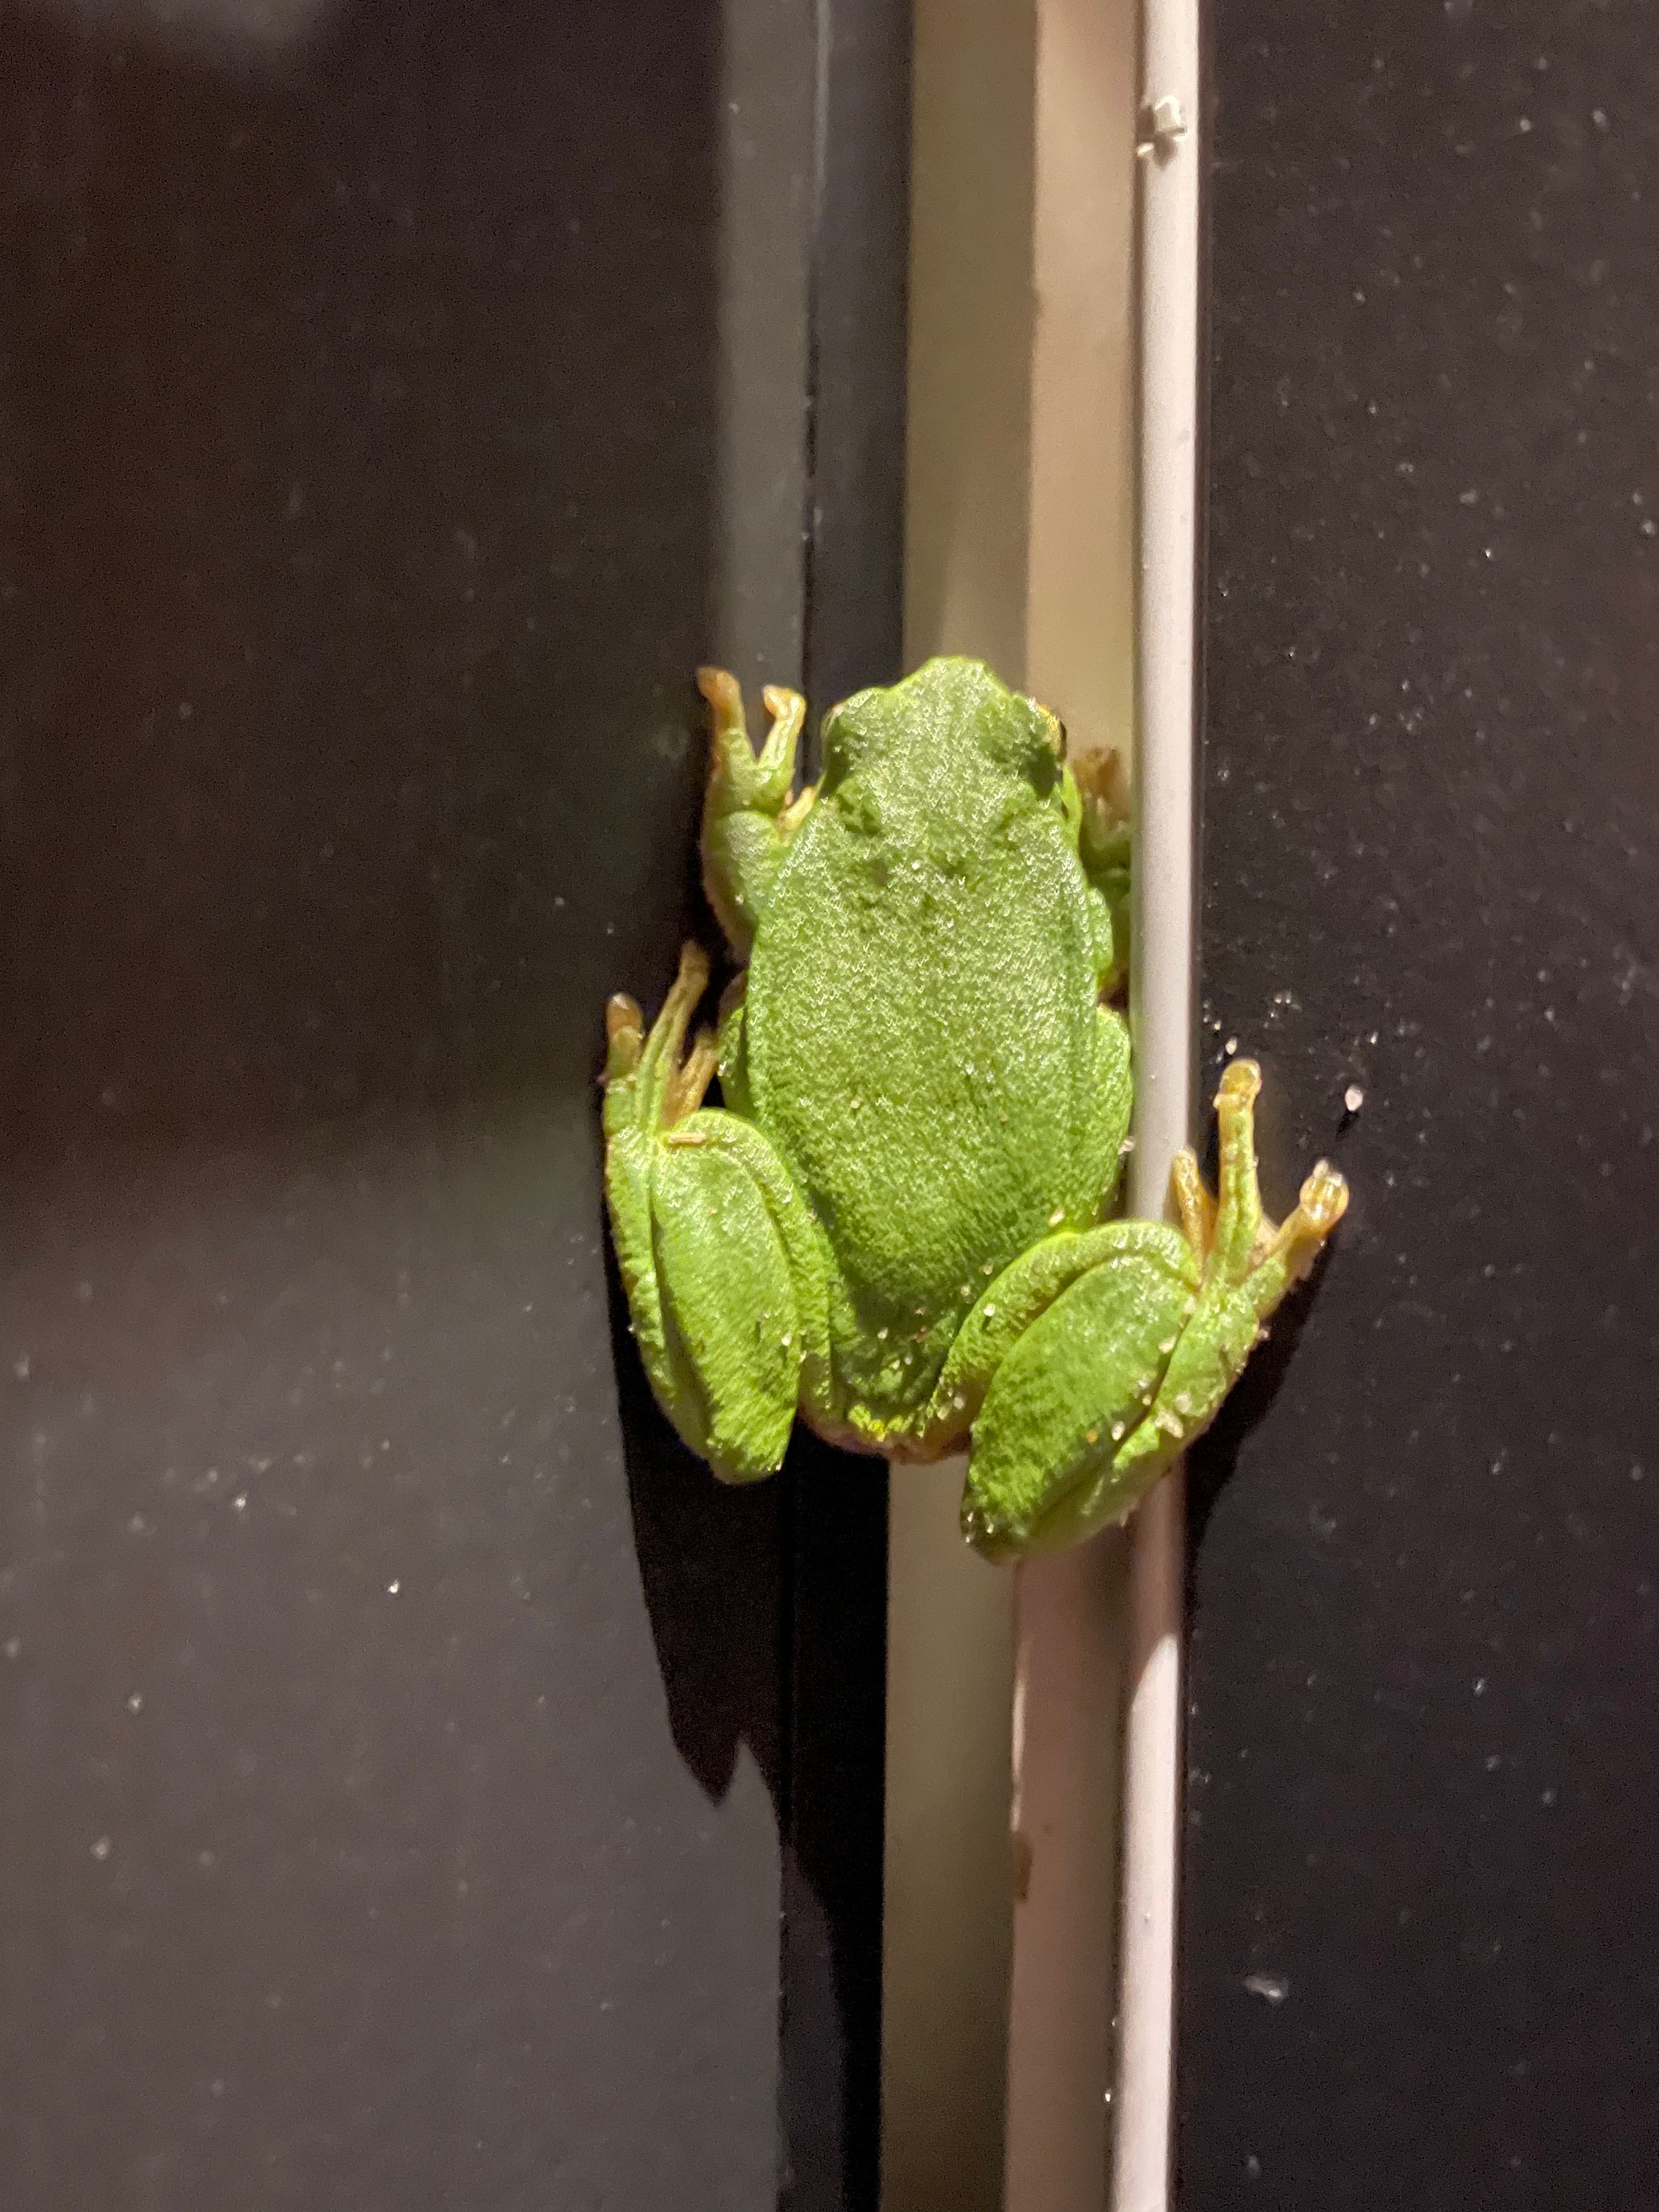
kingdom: Animalia
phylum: Chordata
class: Amphibia
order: Anura
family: Hylidae
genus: Hyla
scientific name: Hyla arborea
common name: Løvfrø
